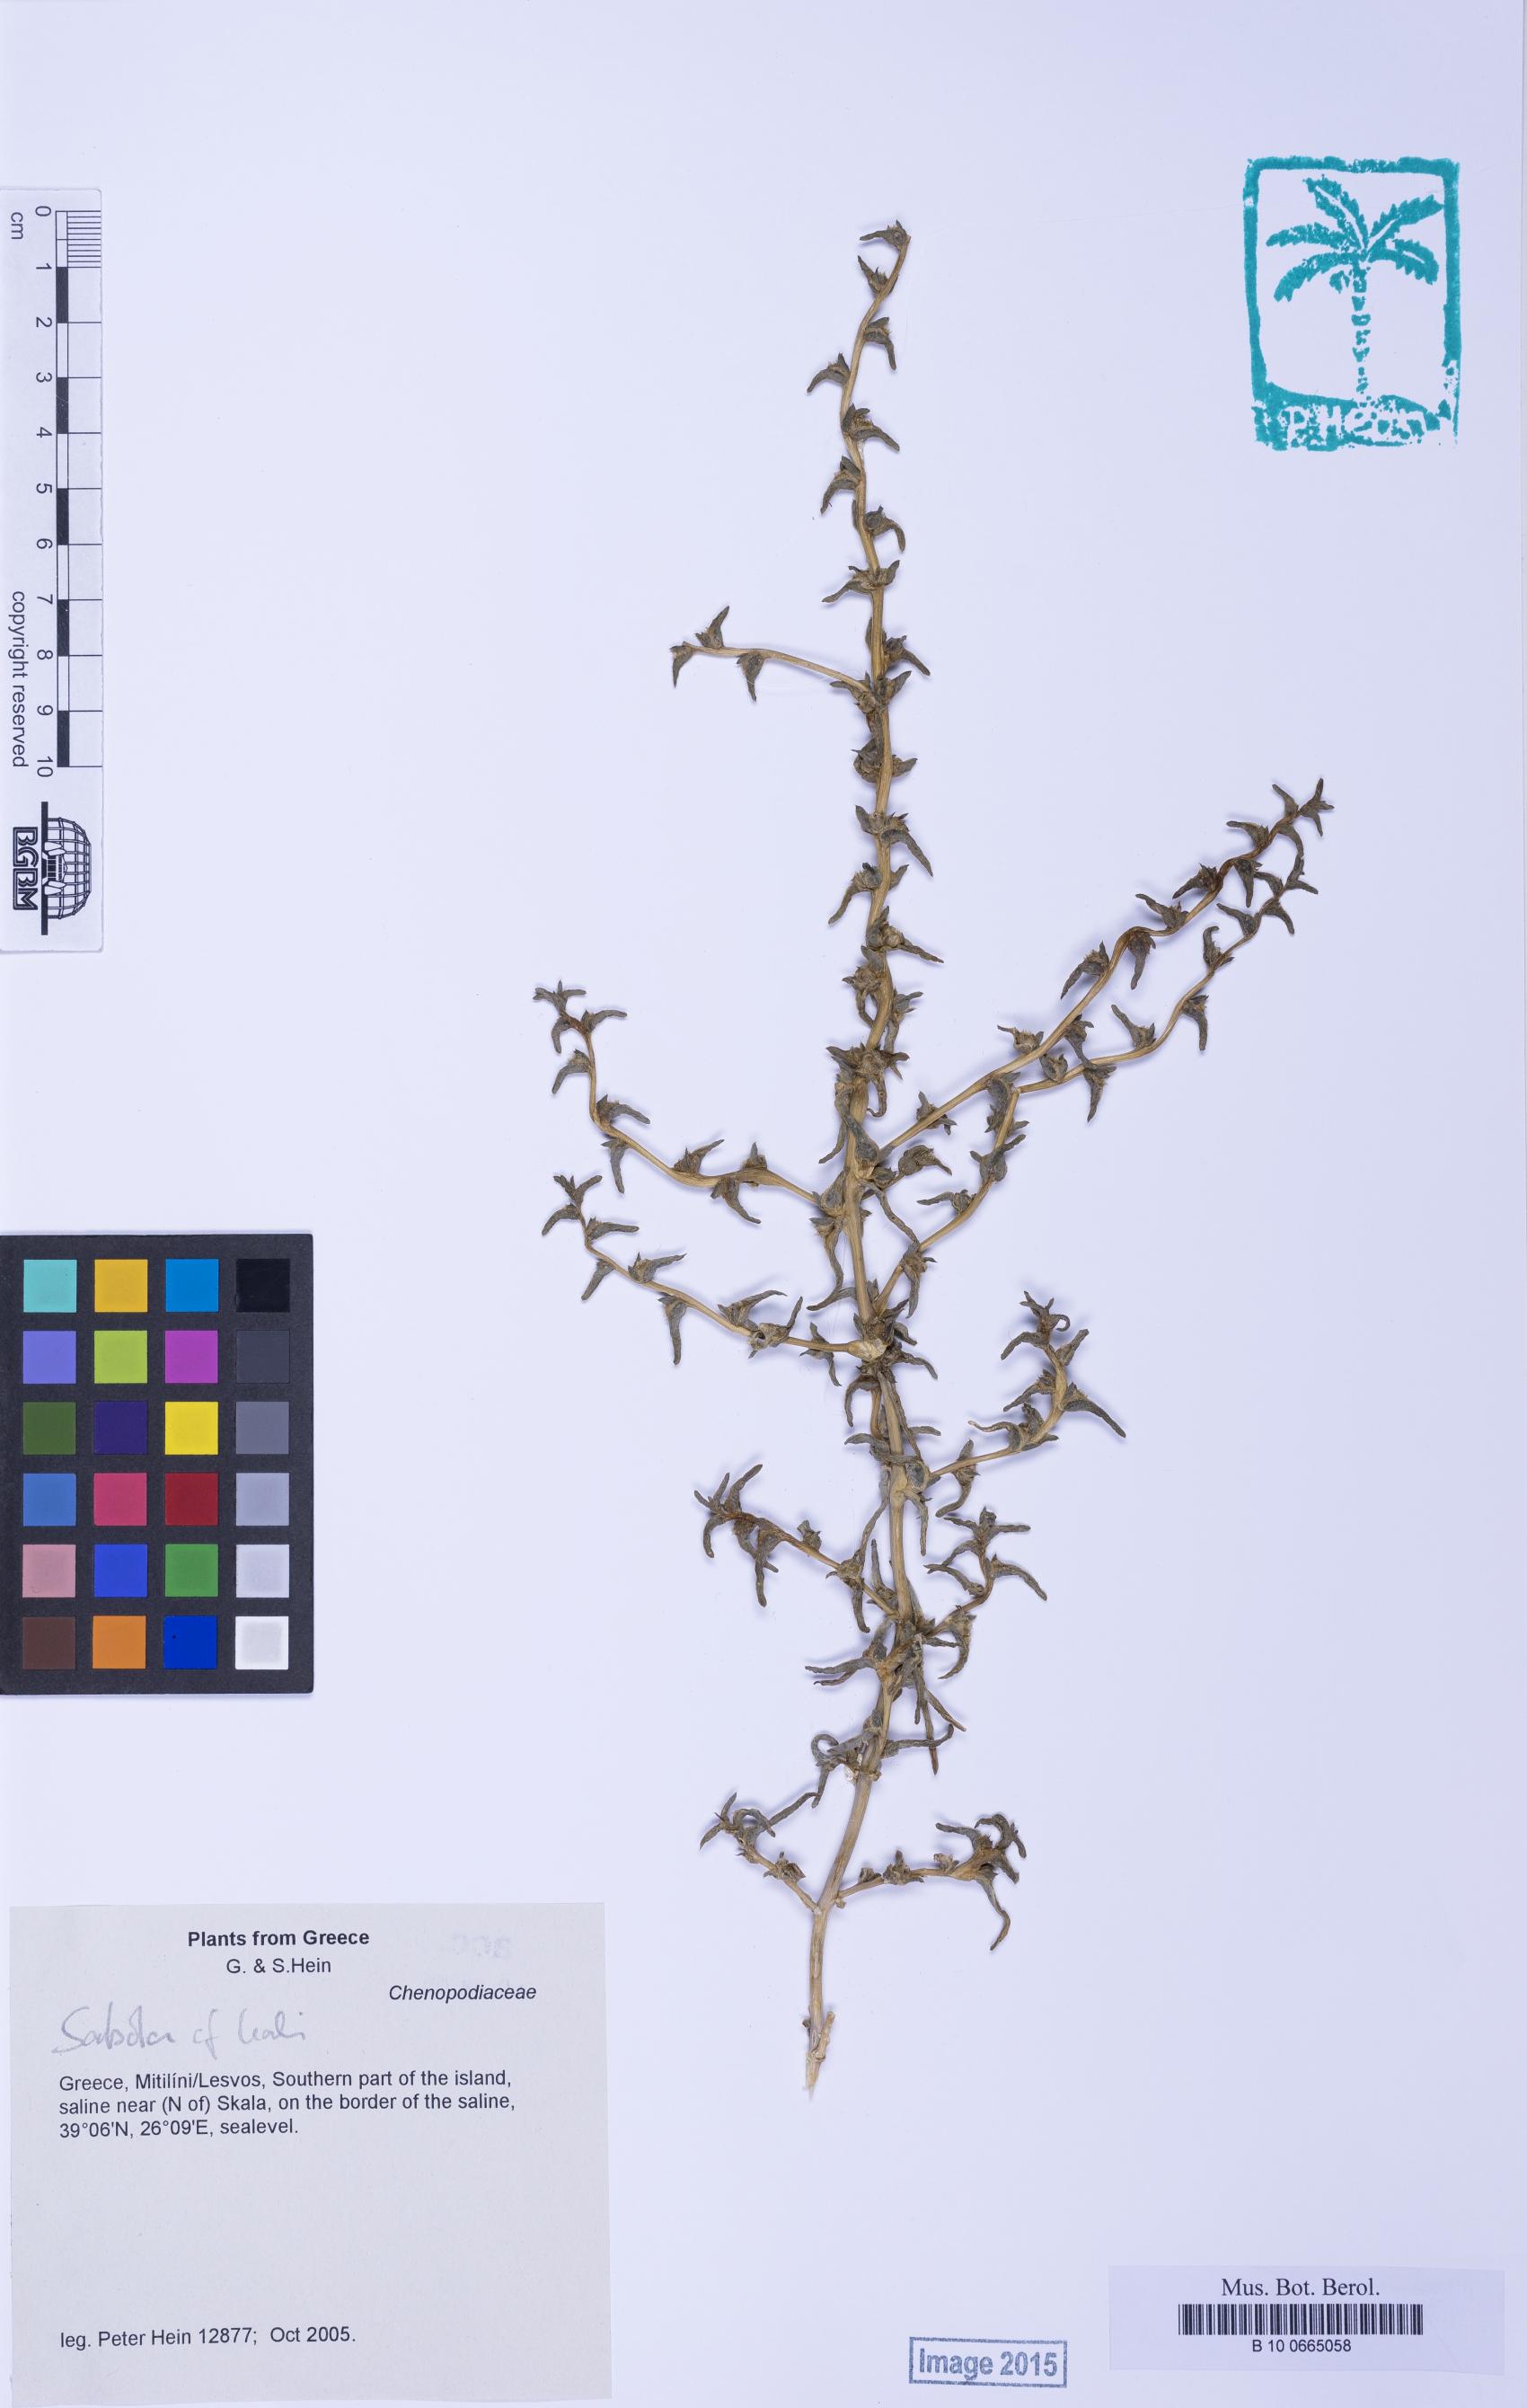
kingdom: Plantae
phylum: Tracheophyta
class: Magnoliopsida
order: Caryophyllales
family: Amaranthaceae
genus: Soda
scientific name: Soda inermis
